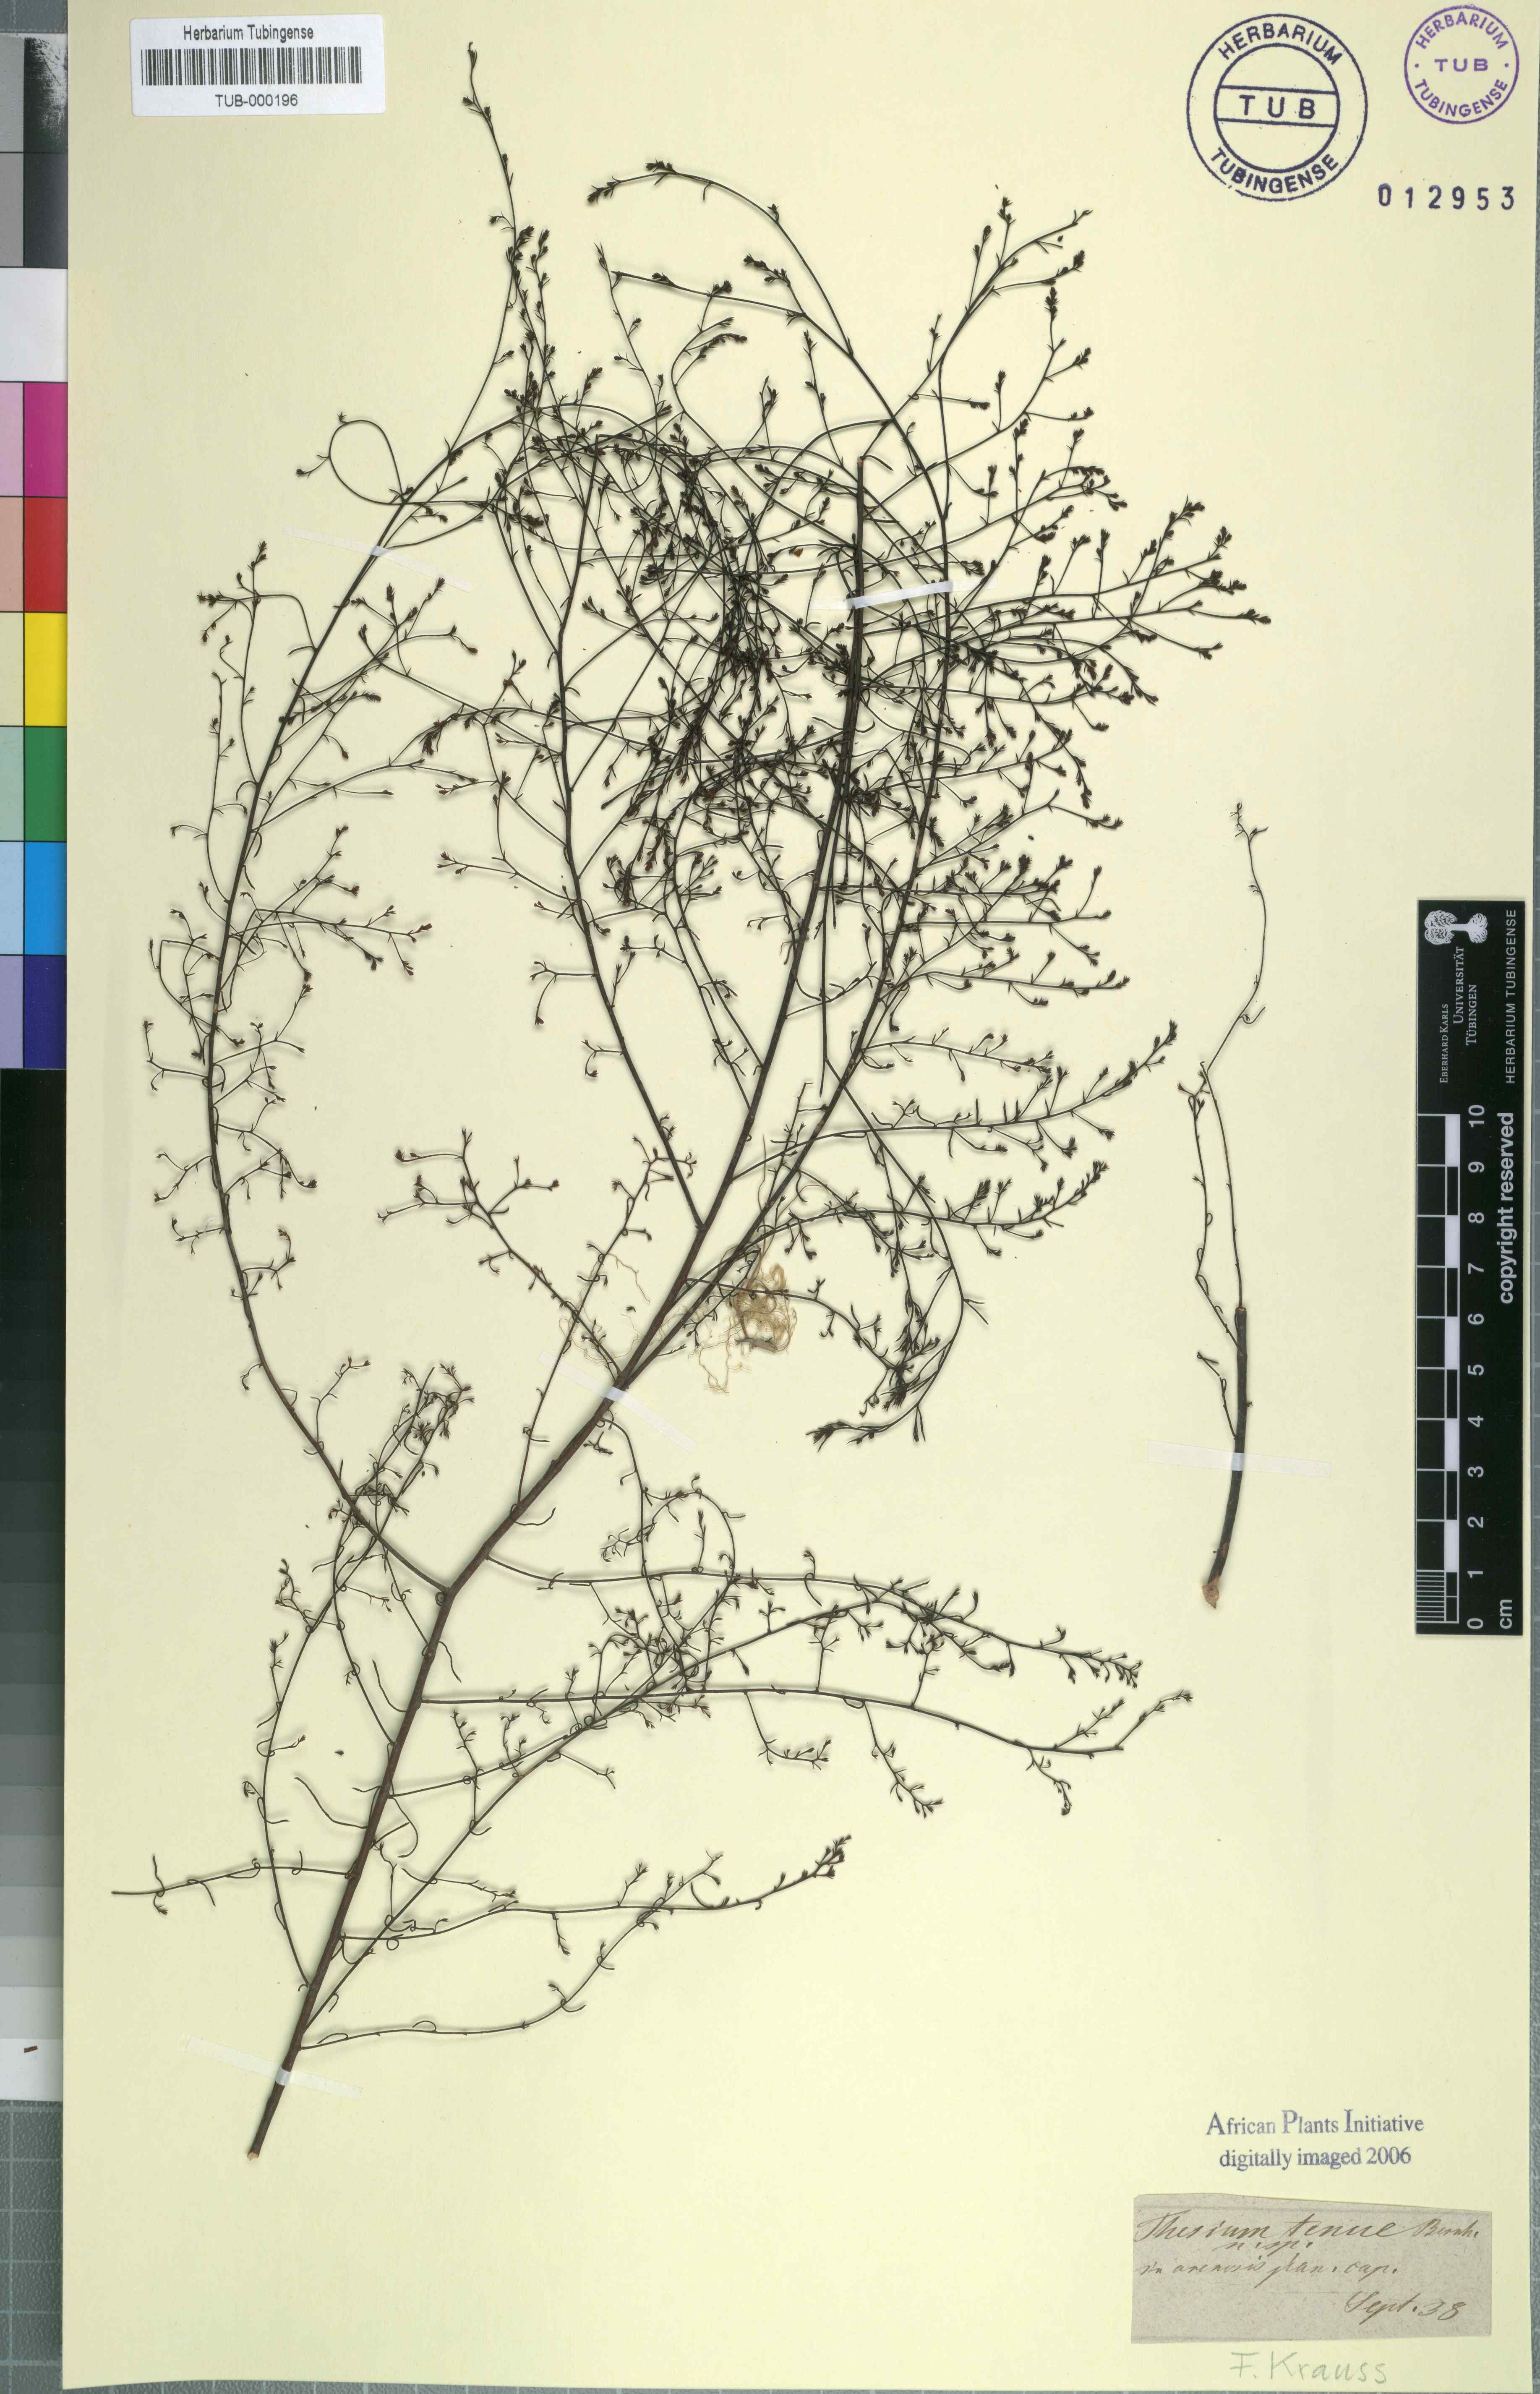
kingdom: Plantae
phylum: Tracheophyta
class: Magnoliopsida
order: Santalales
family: Thesiaceae
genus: Thesium
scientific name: Thesium juncifolium
